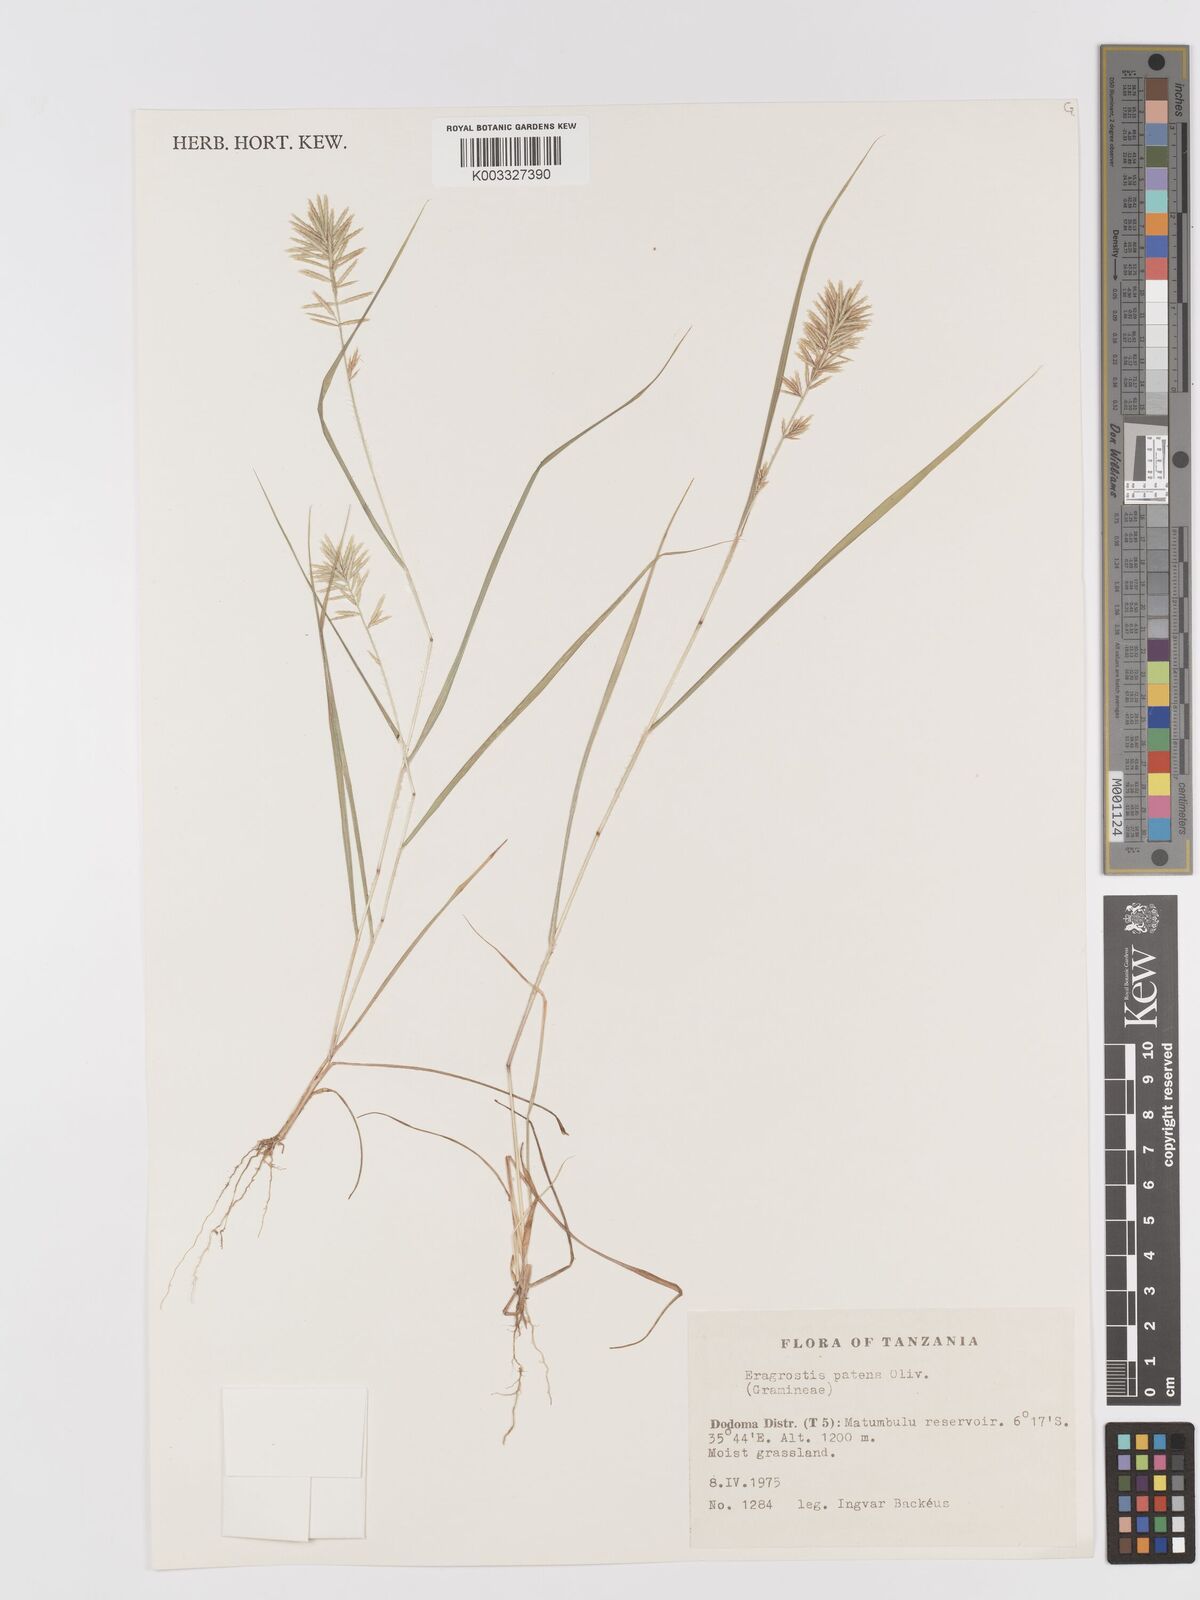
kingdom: Plantae
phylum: Tracheophyta
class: Liliopsida
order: Poales
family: Poaceae
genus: Eragrostis
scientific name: Eragrostis patens
